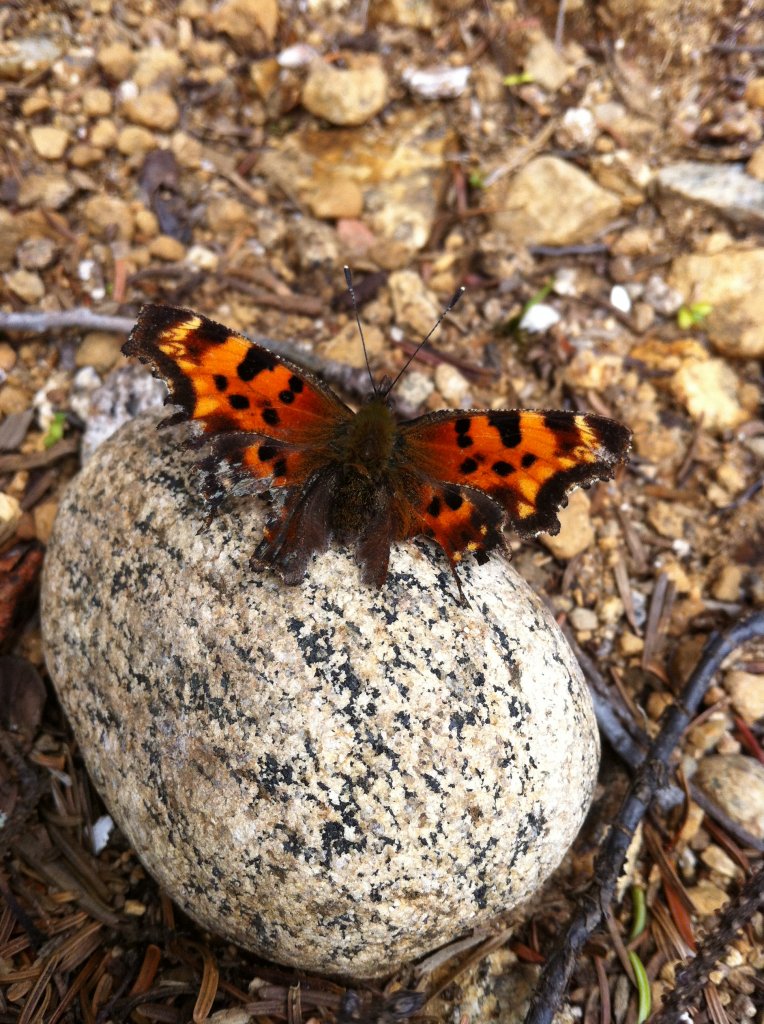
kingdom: Animalia
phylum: Arthropoda
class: Insecta
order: Lepidoptera
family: Nymphalidae
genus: Polygonia
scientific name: Polygonia faunus
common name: Green Comma
